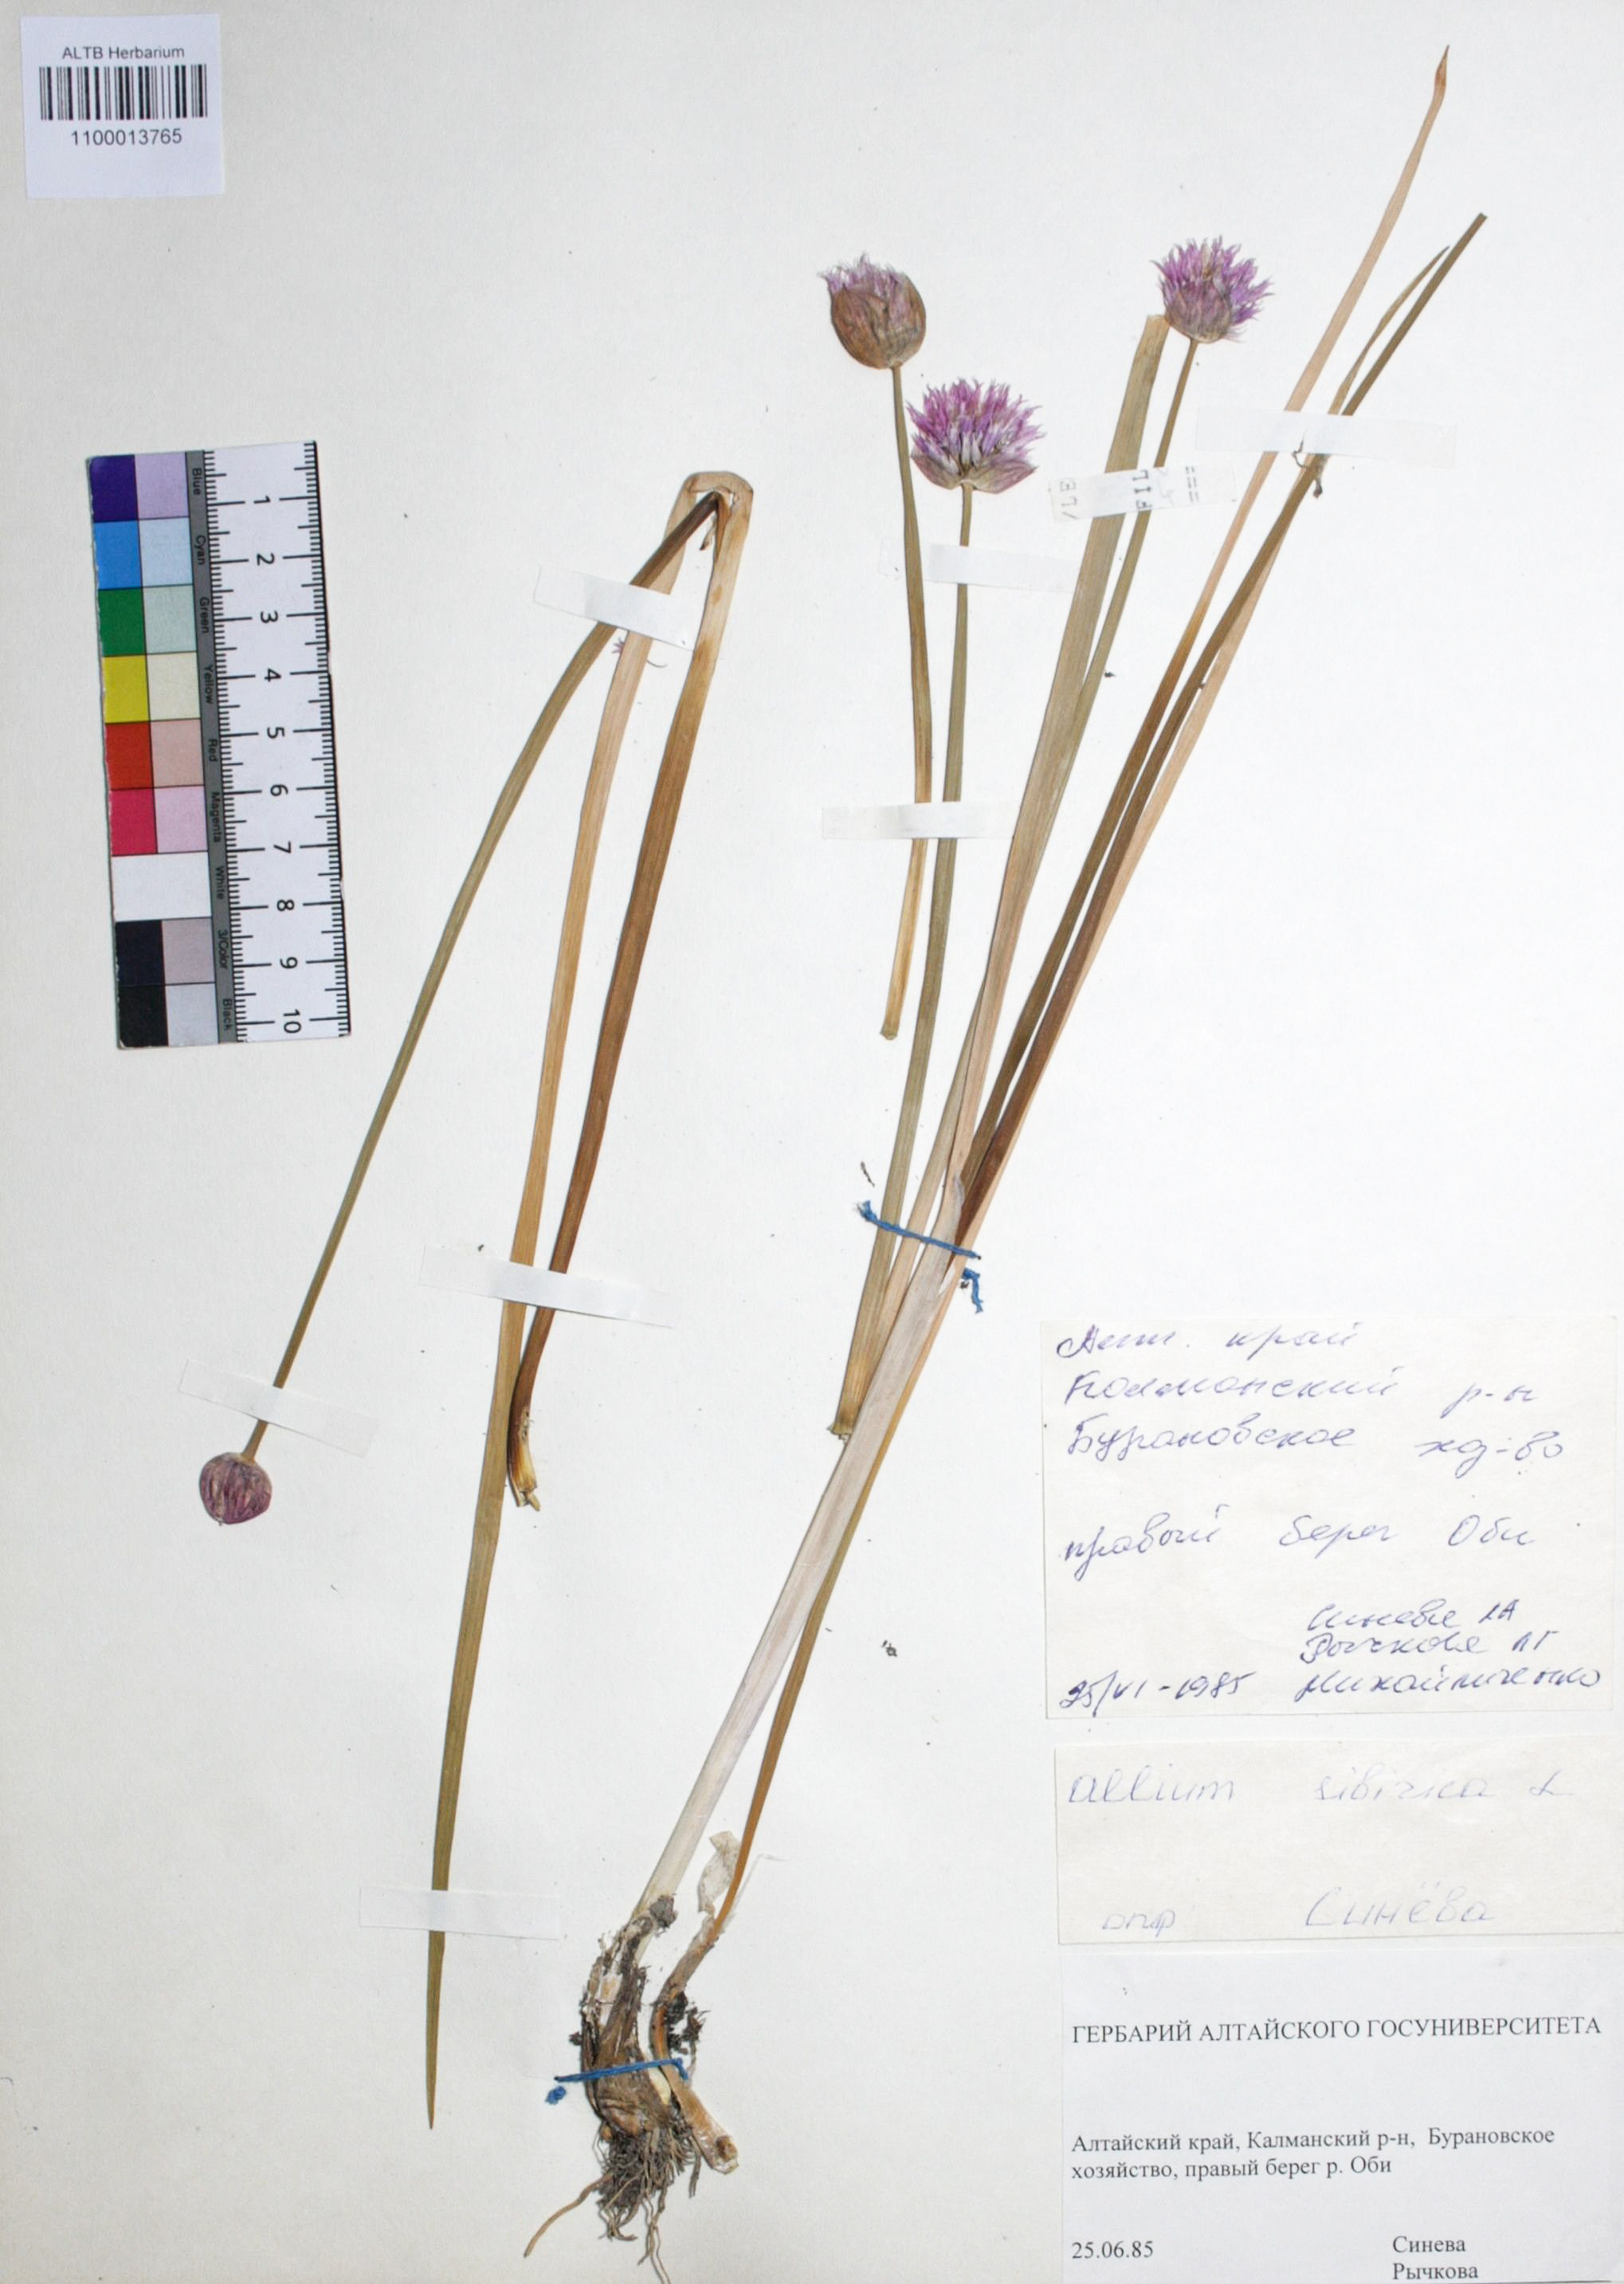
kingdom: Plantae
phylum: Tracheophyta
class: Liliopsida
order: Asparagales
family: Amaryllidaceae
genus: Allium
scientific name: Allium schoenoprasum
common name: Chives
